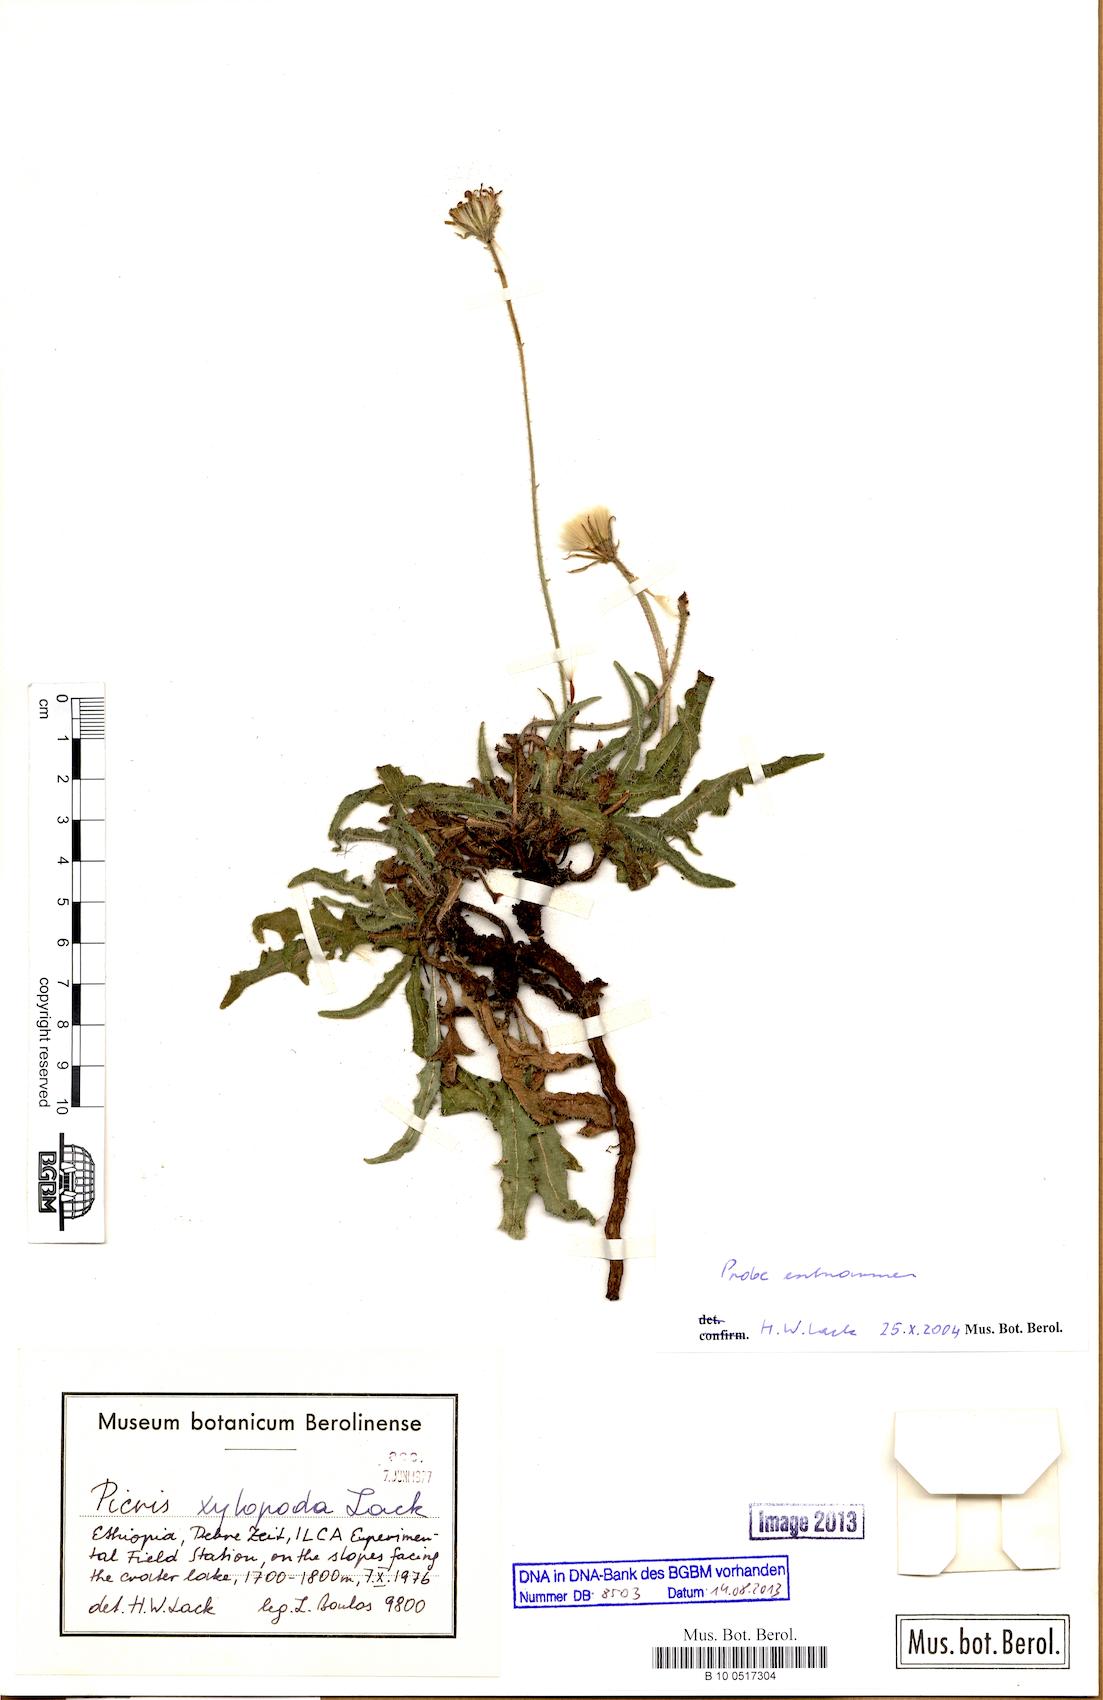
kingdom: Plantae
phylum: Tracheophyta
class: Magnoliopsida
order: Asterales
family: Asteraceae
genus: Picris
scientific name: Picris xylopoda
